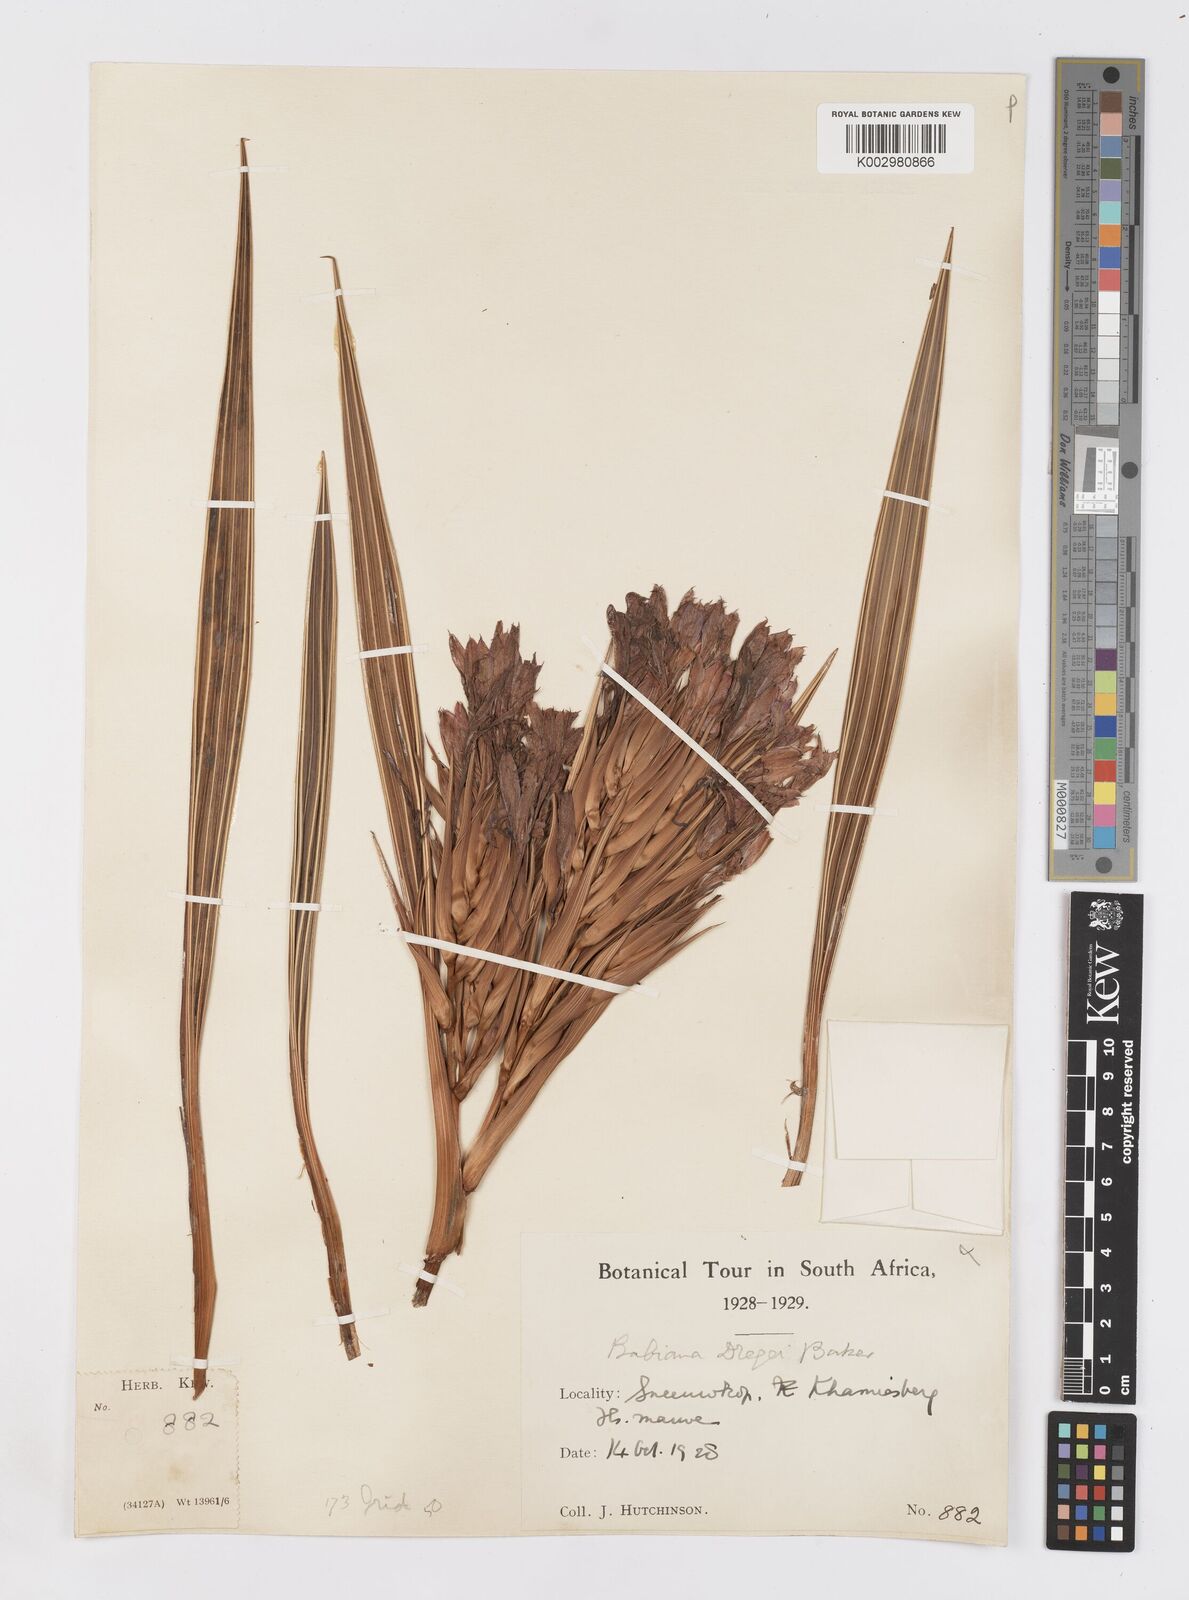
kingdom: Plantae
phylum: Tracheophyta
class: Liliopsida
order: Asparagales
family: Iridaceae
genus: Babiana
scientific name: Babiana dregei
